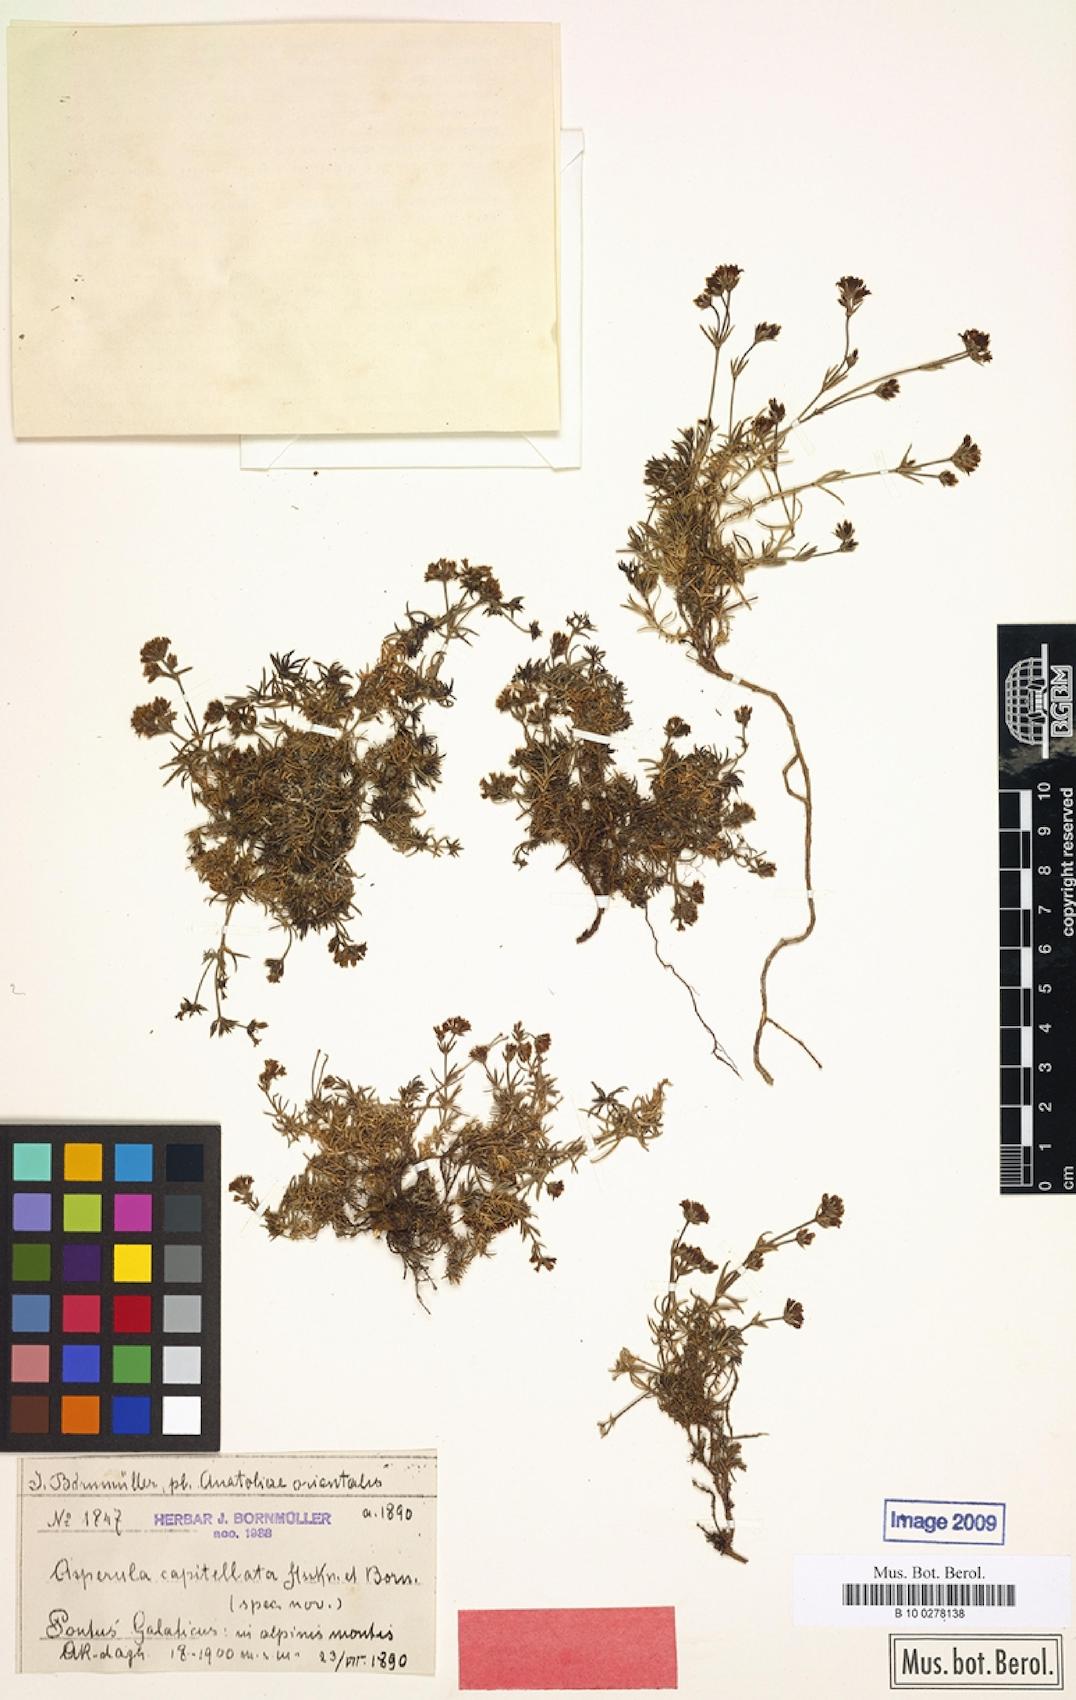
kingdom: Plantae
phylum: Tracheophyta
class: Magnoliopsida
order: Gentianales
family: Rubiaceae
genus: Cynanchica
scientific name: Cynanchica capitellata
